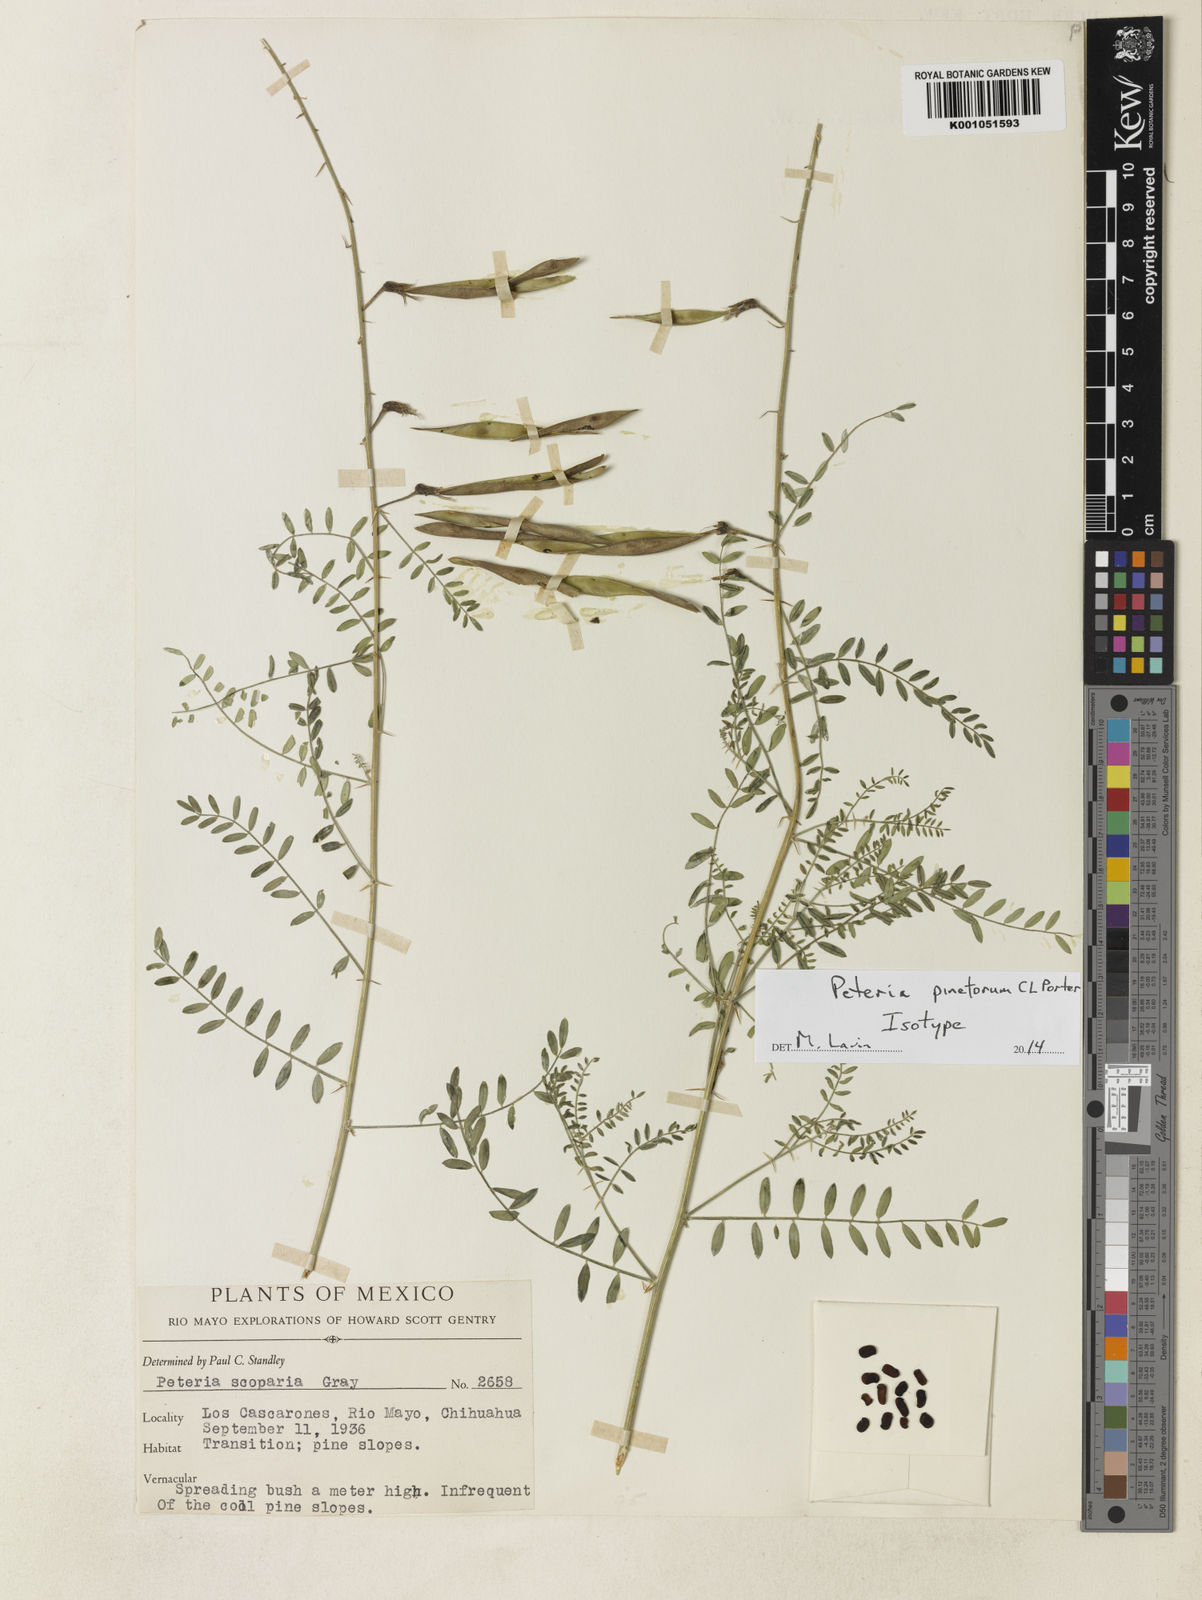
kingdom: Plantae
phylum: Tracheophyta
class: Magnoliopsida
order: Fabales
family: Fabaceae
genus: Peteria
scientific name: Peteria pinetorum
